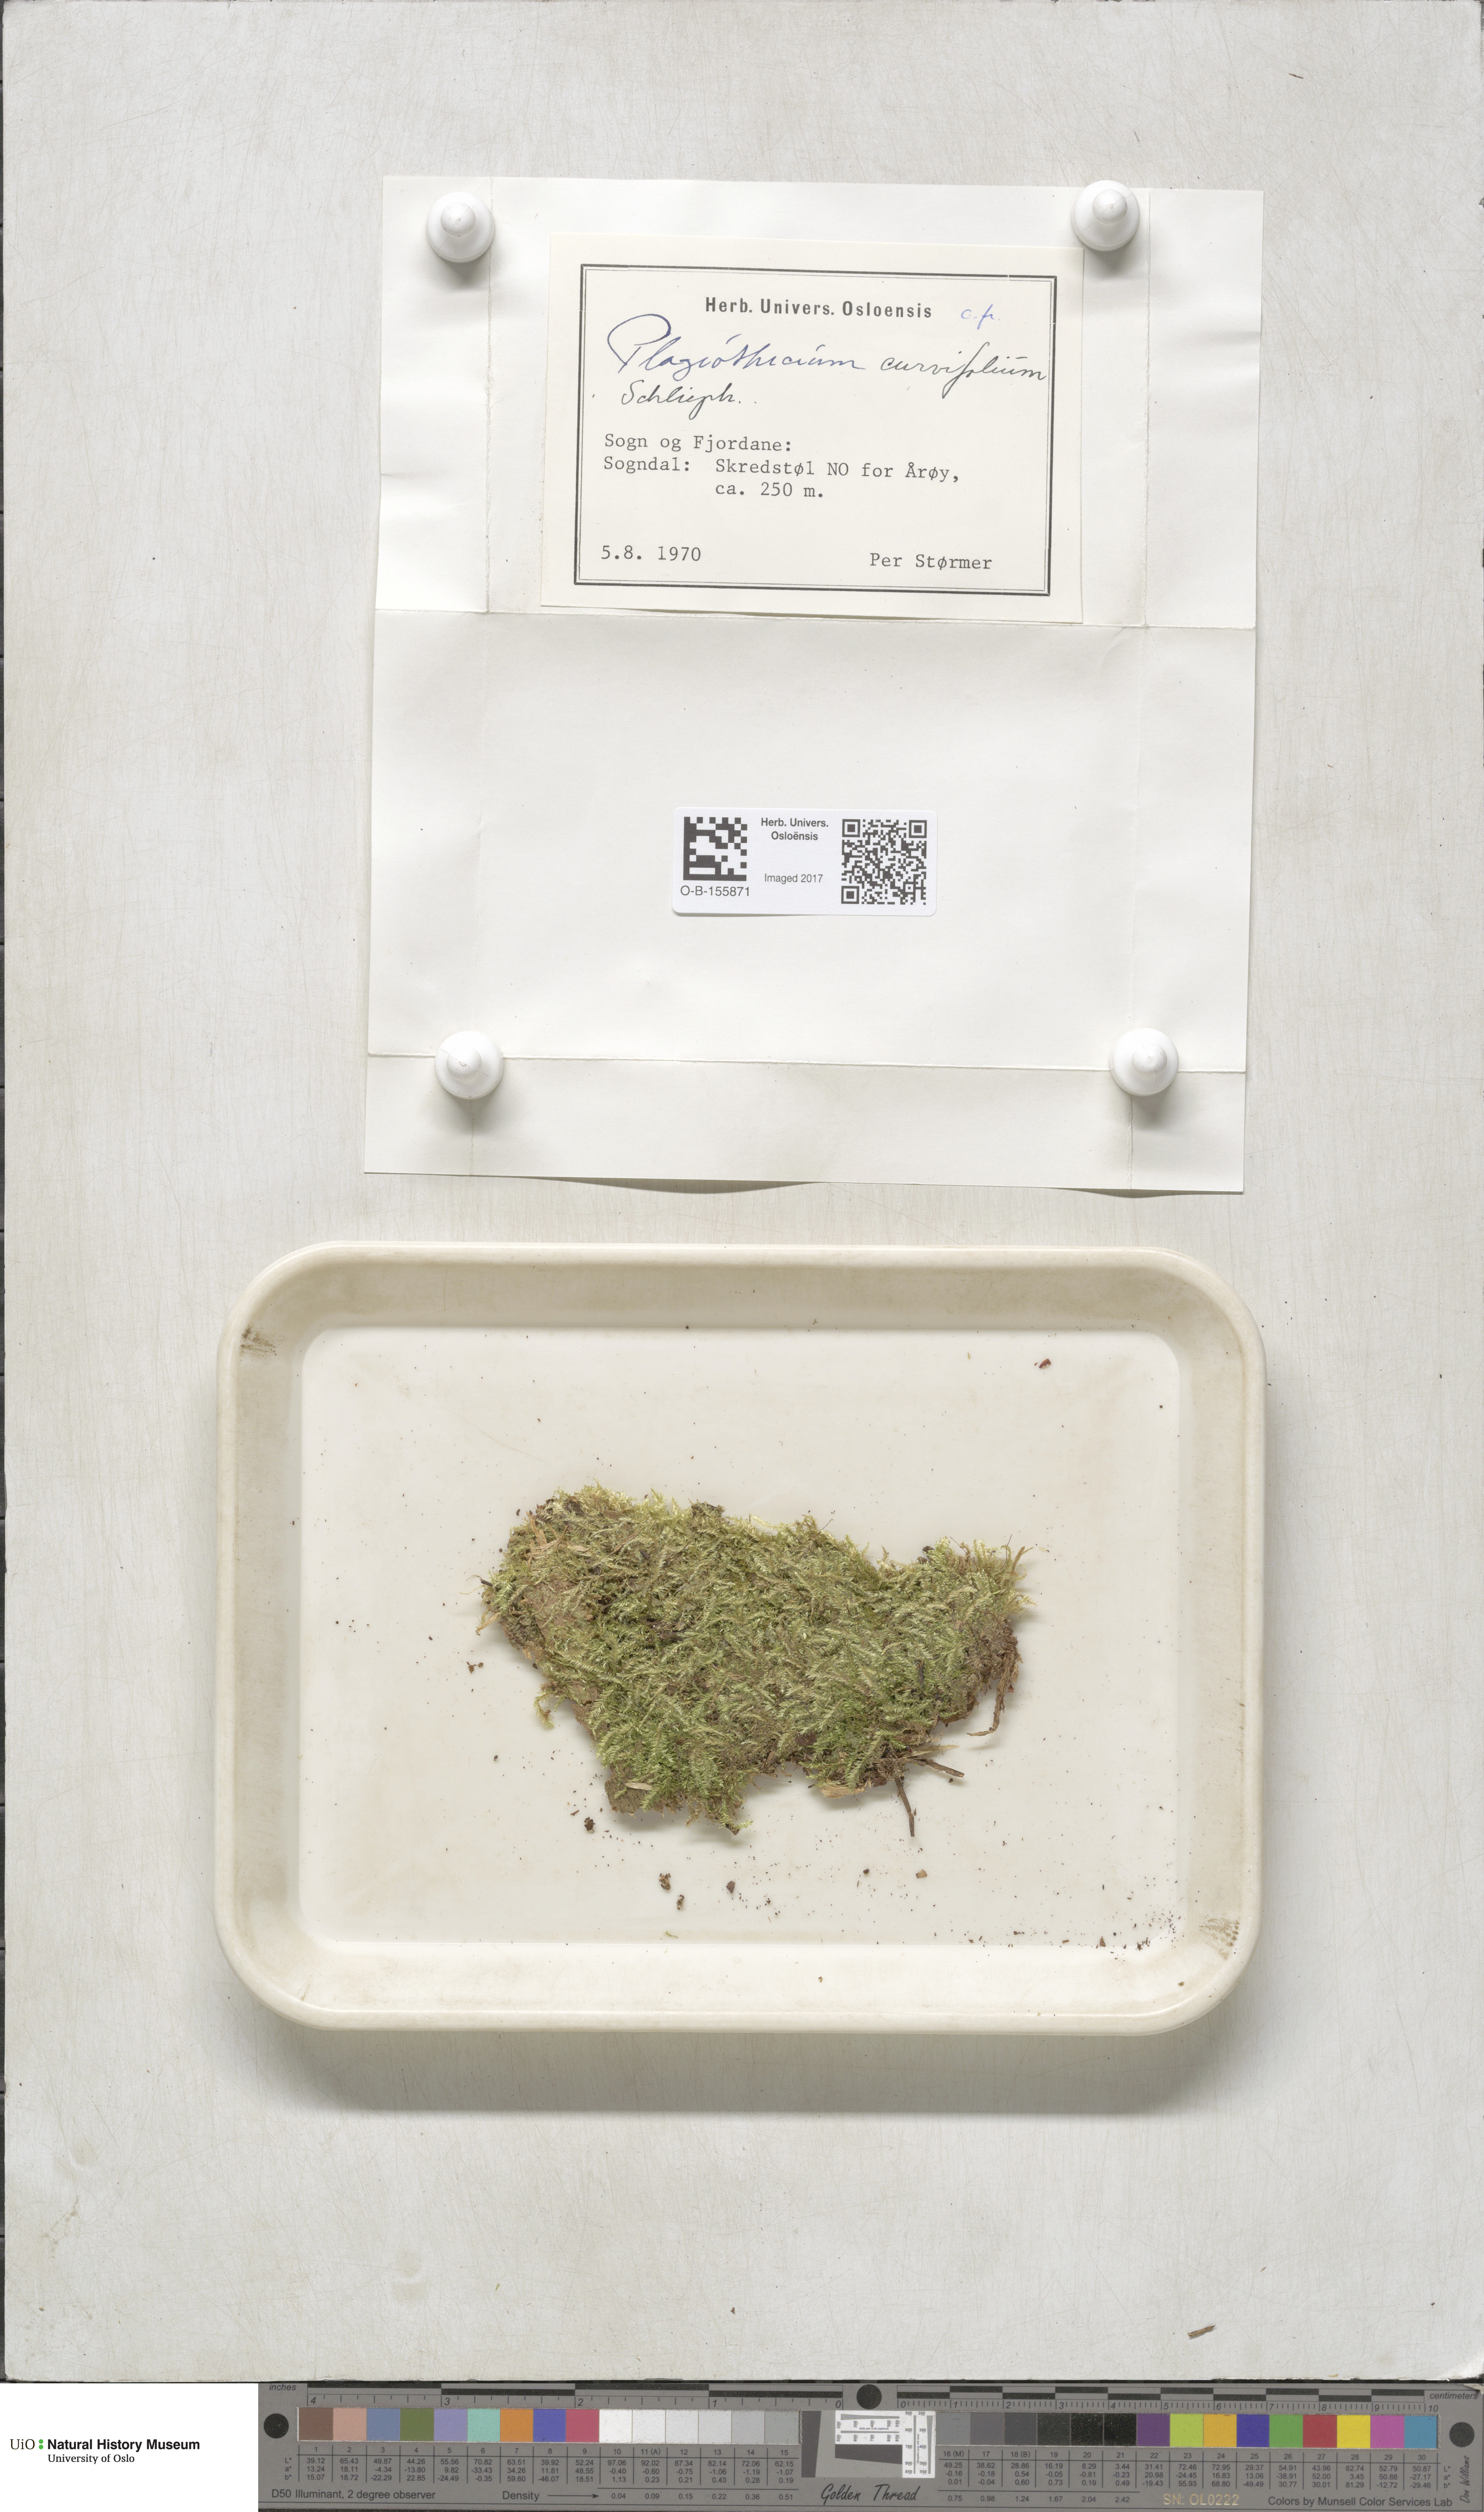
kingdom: Plantae
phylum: Bryophyta
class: Bryopsida
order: Hypnales
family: Plagiotheciaceae
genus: Plagiothecium
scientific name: Plagiothecium curvifolium
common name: Curved silk-moss
